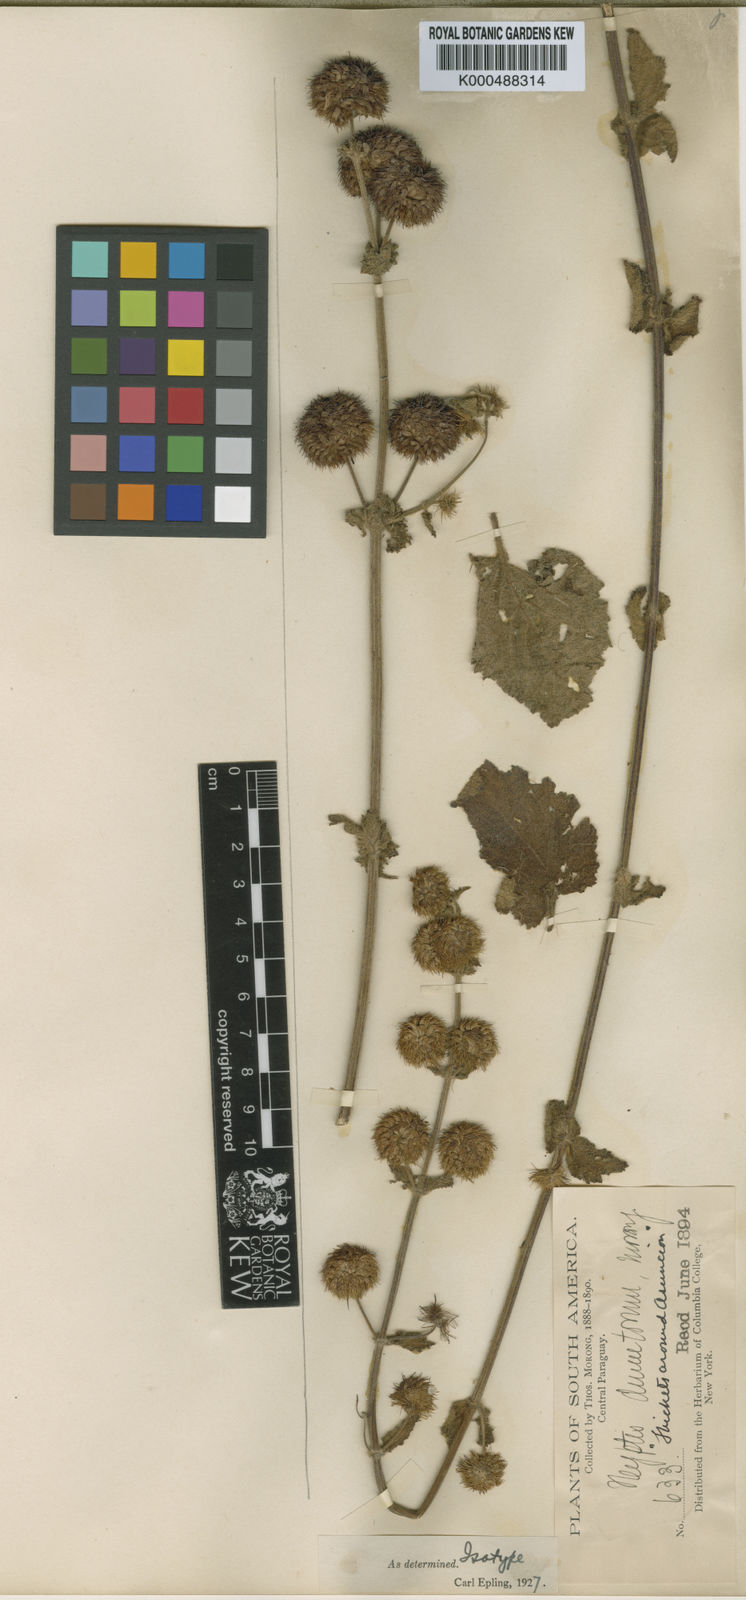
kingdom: Plantae
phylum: Tracheophyta
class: Magnoliopsida
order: Lamiales
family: Lamiaceae
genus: Hyptis
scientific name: Hyptis dumetorum
